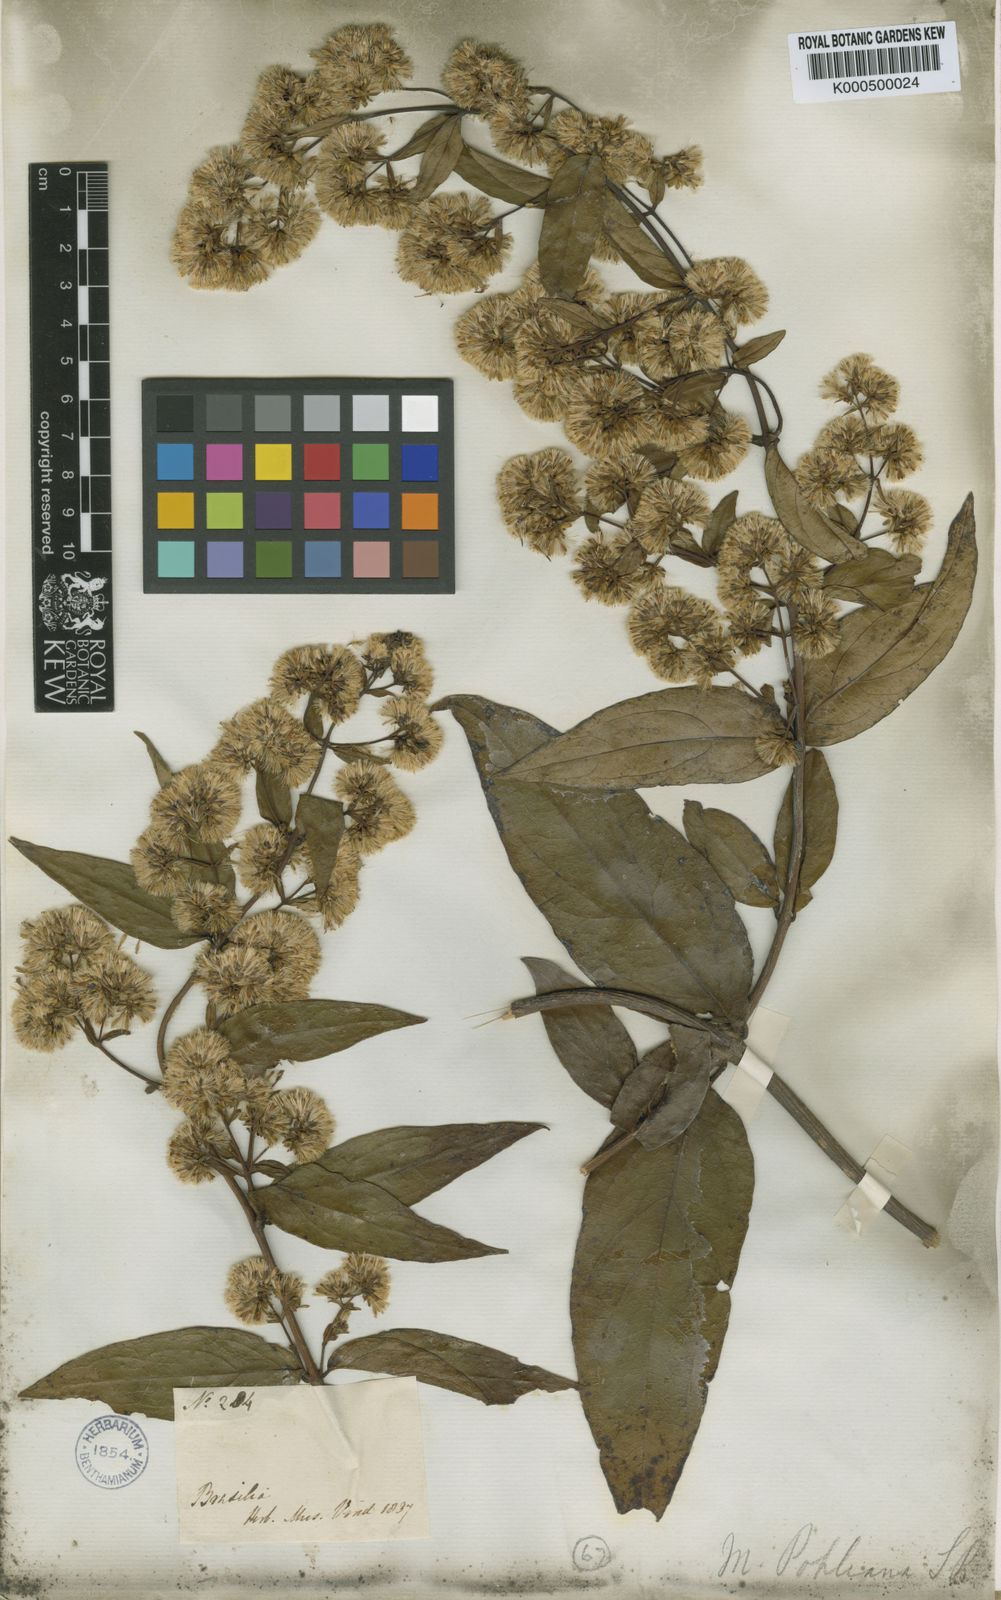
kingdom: Plantae
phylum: Tracheophyta
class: Magnoliopsida
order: Asterales
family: Asteraceae
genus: Mikania
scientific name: Mikania pohliana
